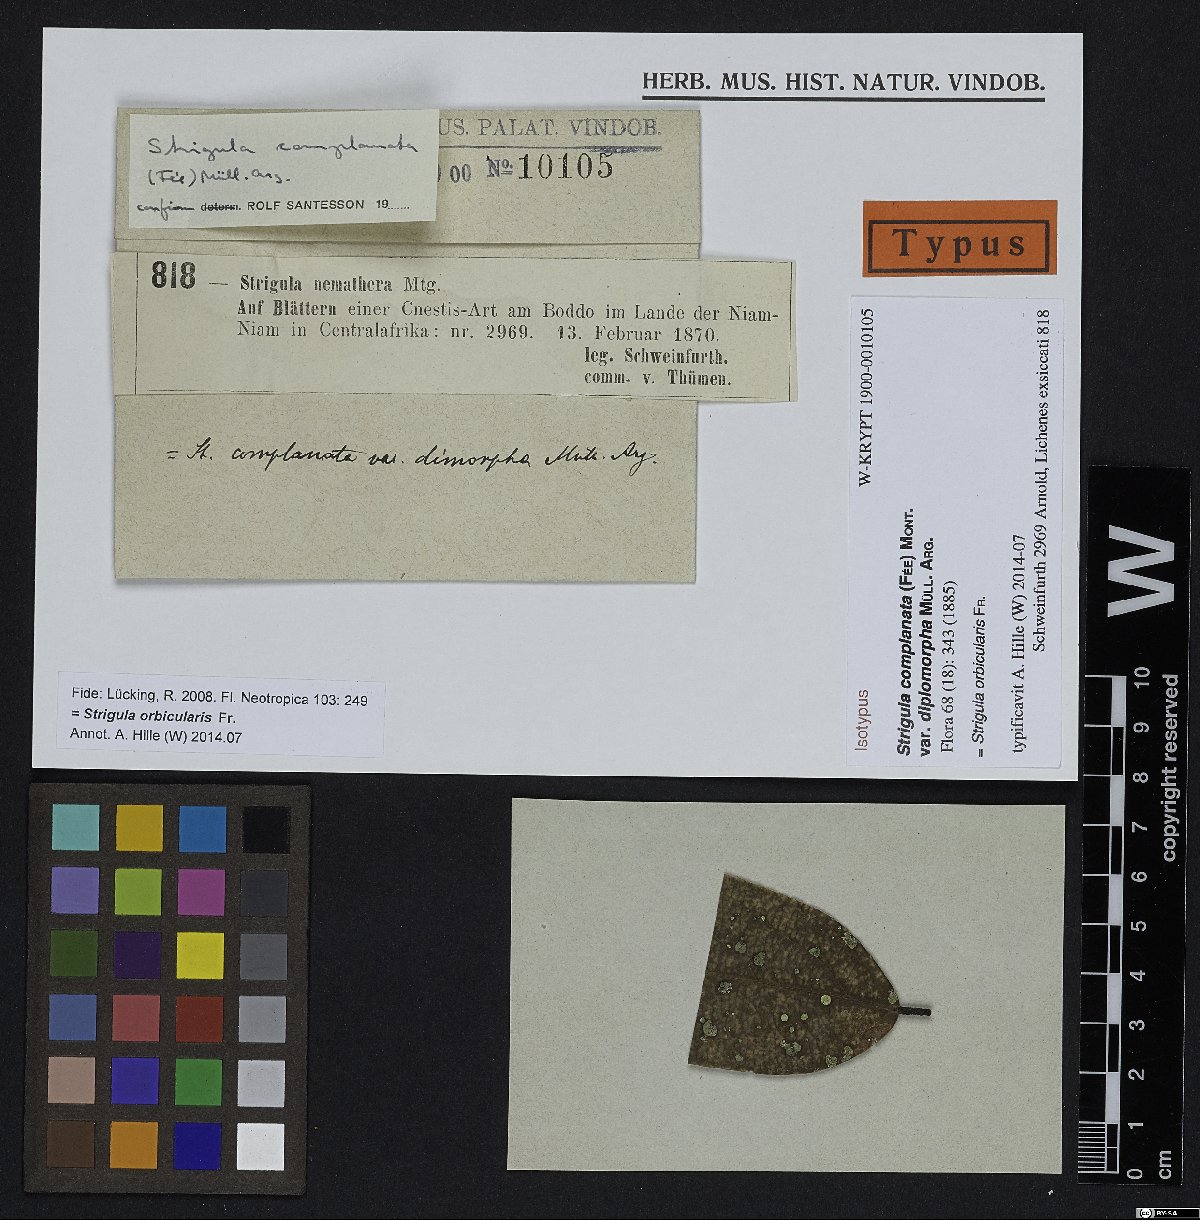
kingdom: Fungi
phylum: Ascomycota
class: Dothideomycetes
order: Strigulales
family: Strigulaceae
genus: Phyllocharis
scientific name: Phyllocharis orbicularis
